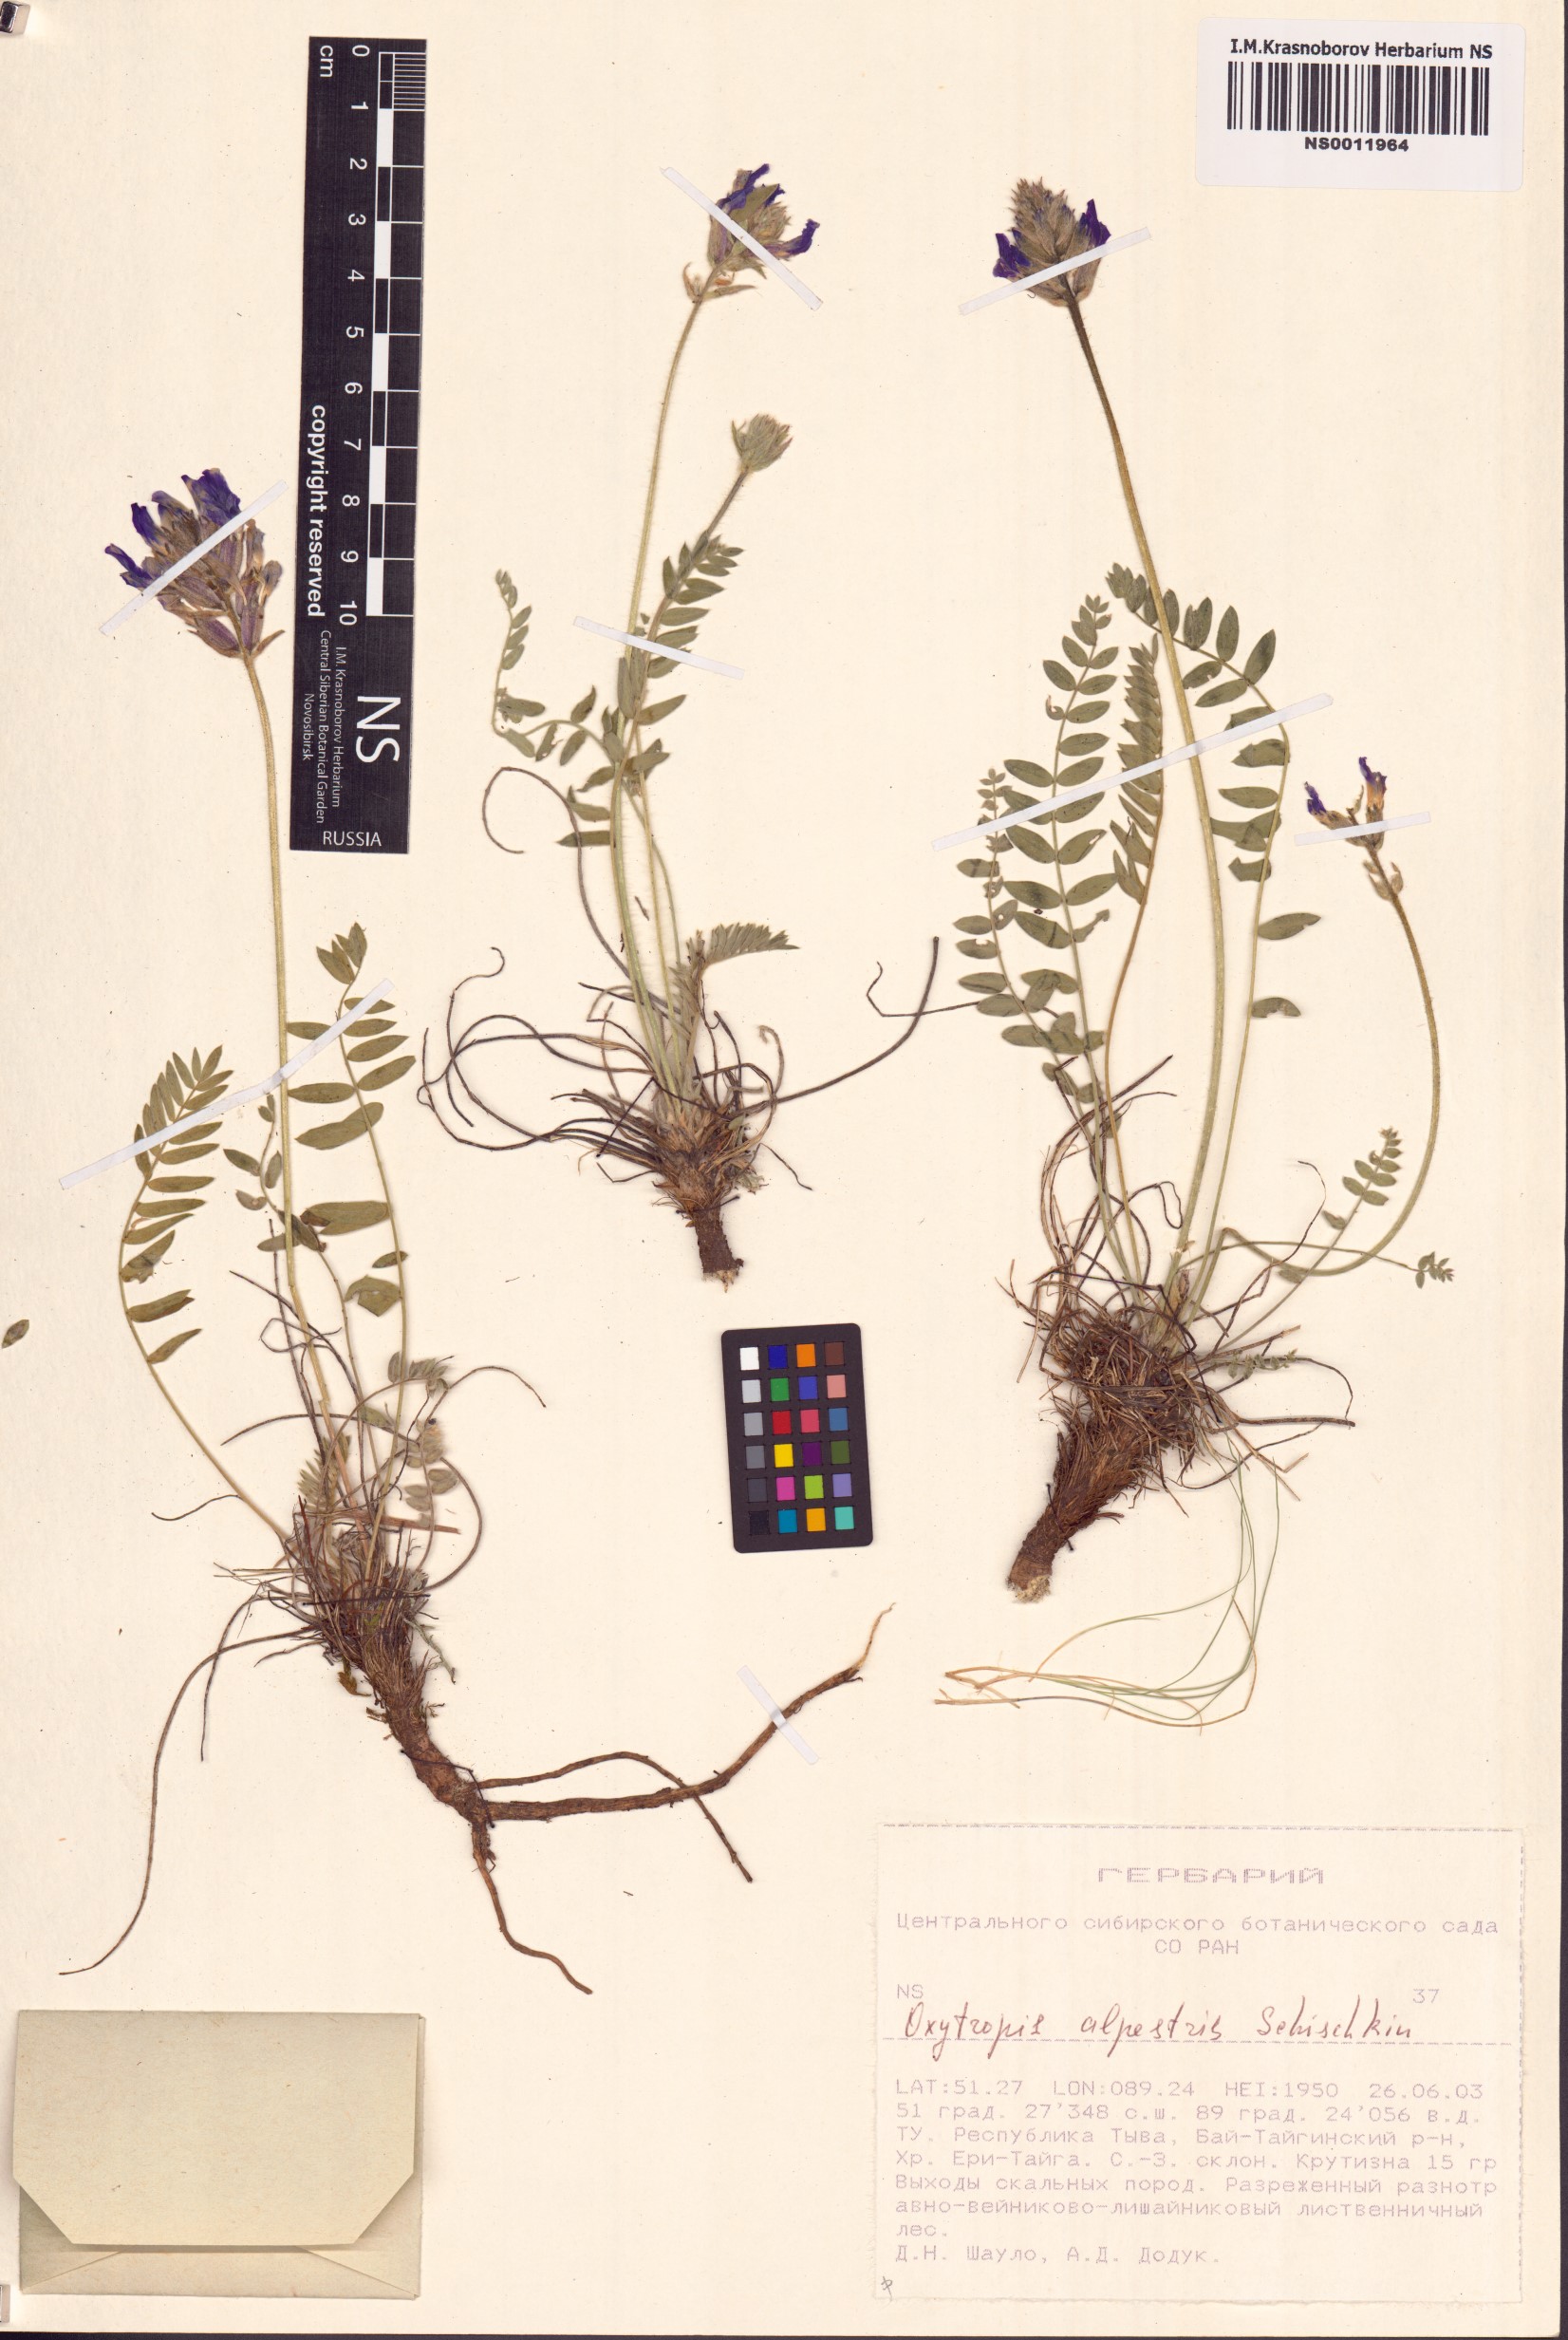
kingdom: Plantae
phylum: Tracheophyta
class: Magnoliopsida
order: Fabales
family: Fabaceae
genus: Oxytropis
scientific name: Oxytropis alpestris
